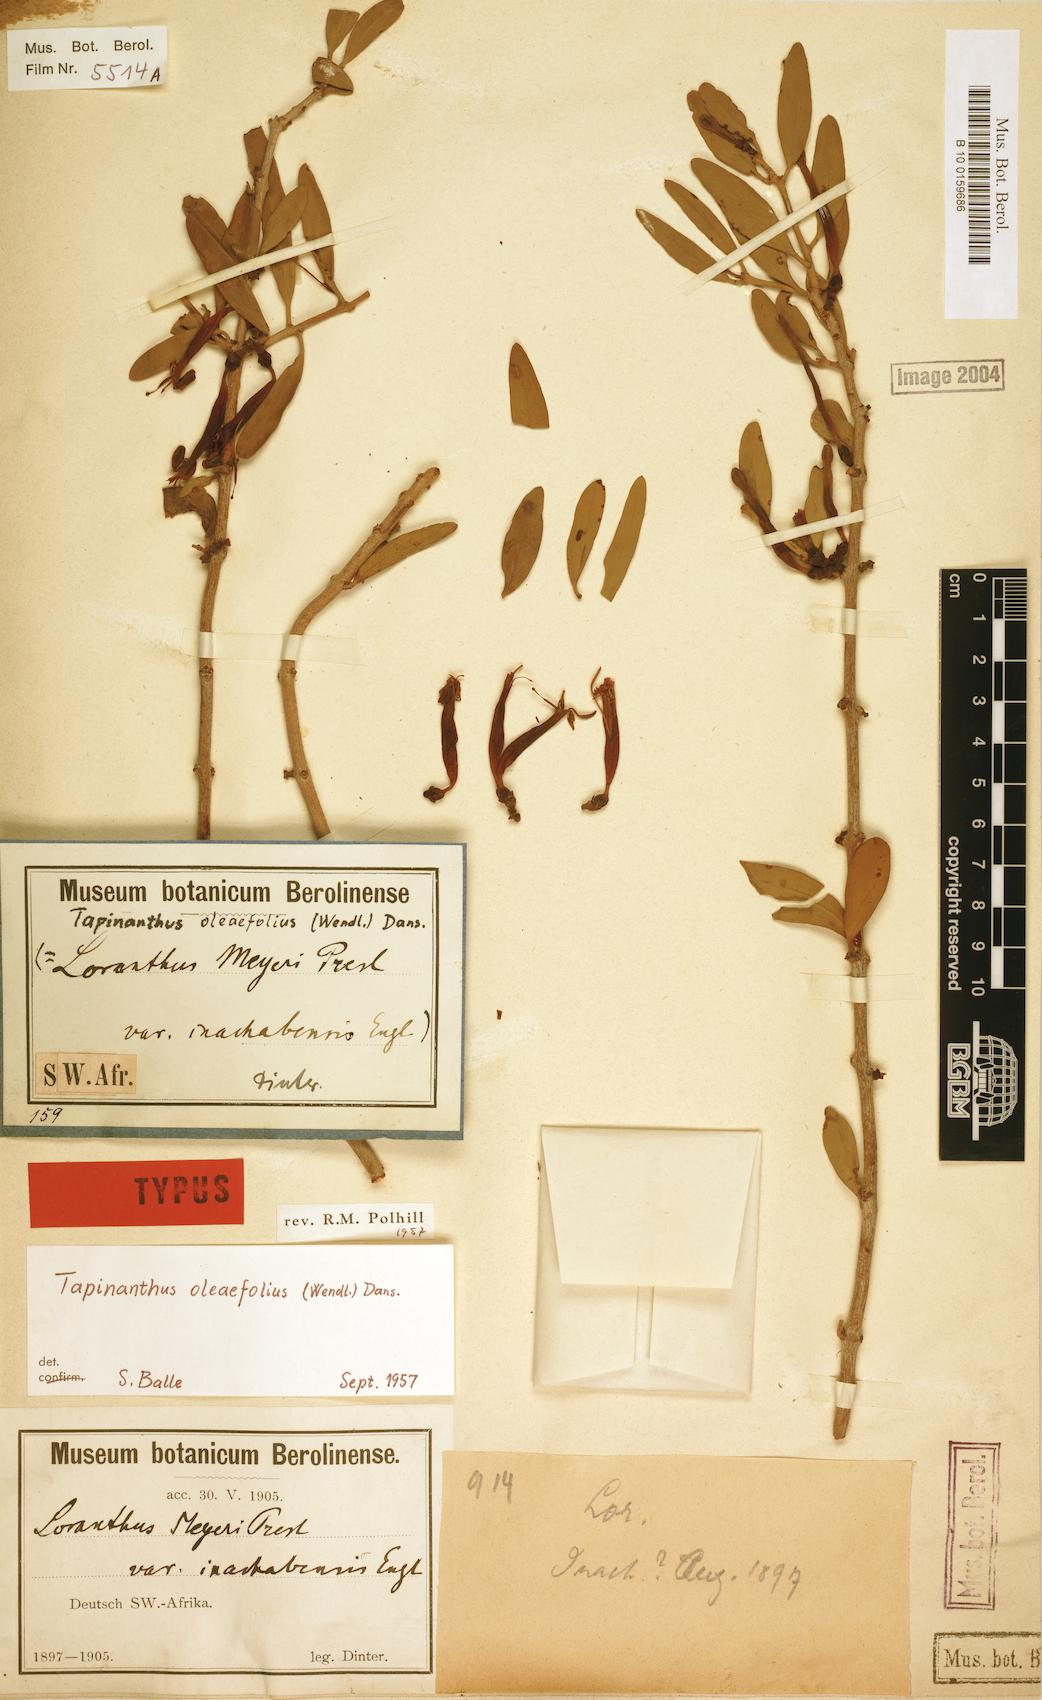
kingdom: Plantae
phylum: Tracheophyta
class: Magnoliopsida
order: Santalales
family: Loranthaceae
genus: Tapinanthus
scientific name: Tapinanthus oleifolius
